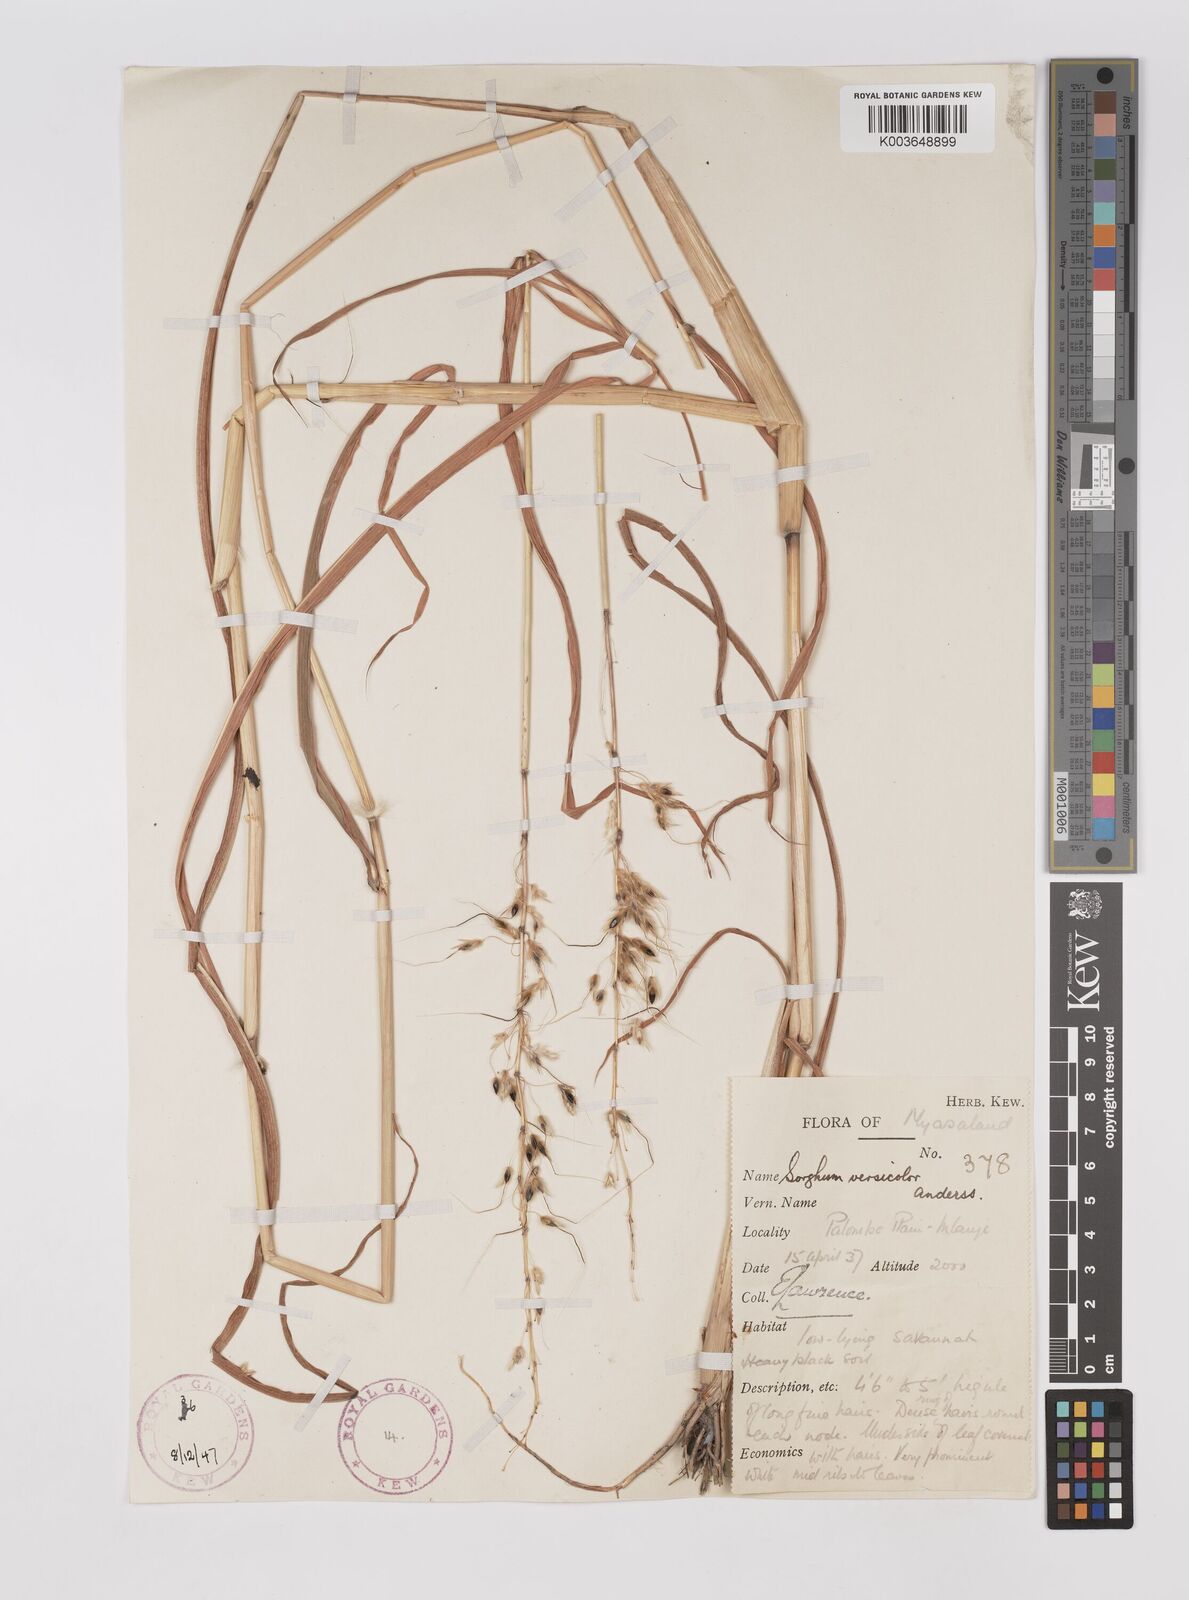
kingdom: Plantae
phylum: Tracheophyta
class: Liliopsida
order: Poales
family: Poaceae
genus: Sarga
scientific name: Sarga versicolor
